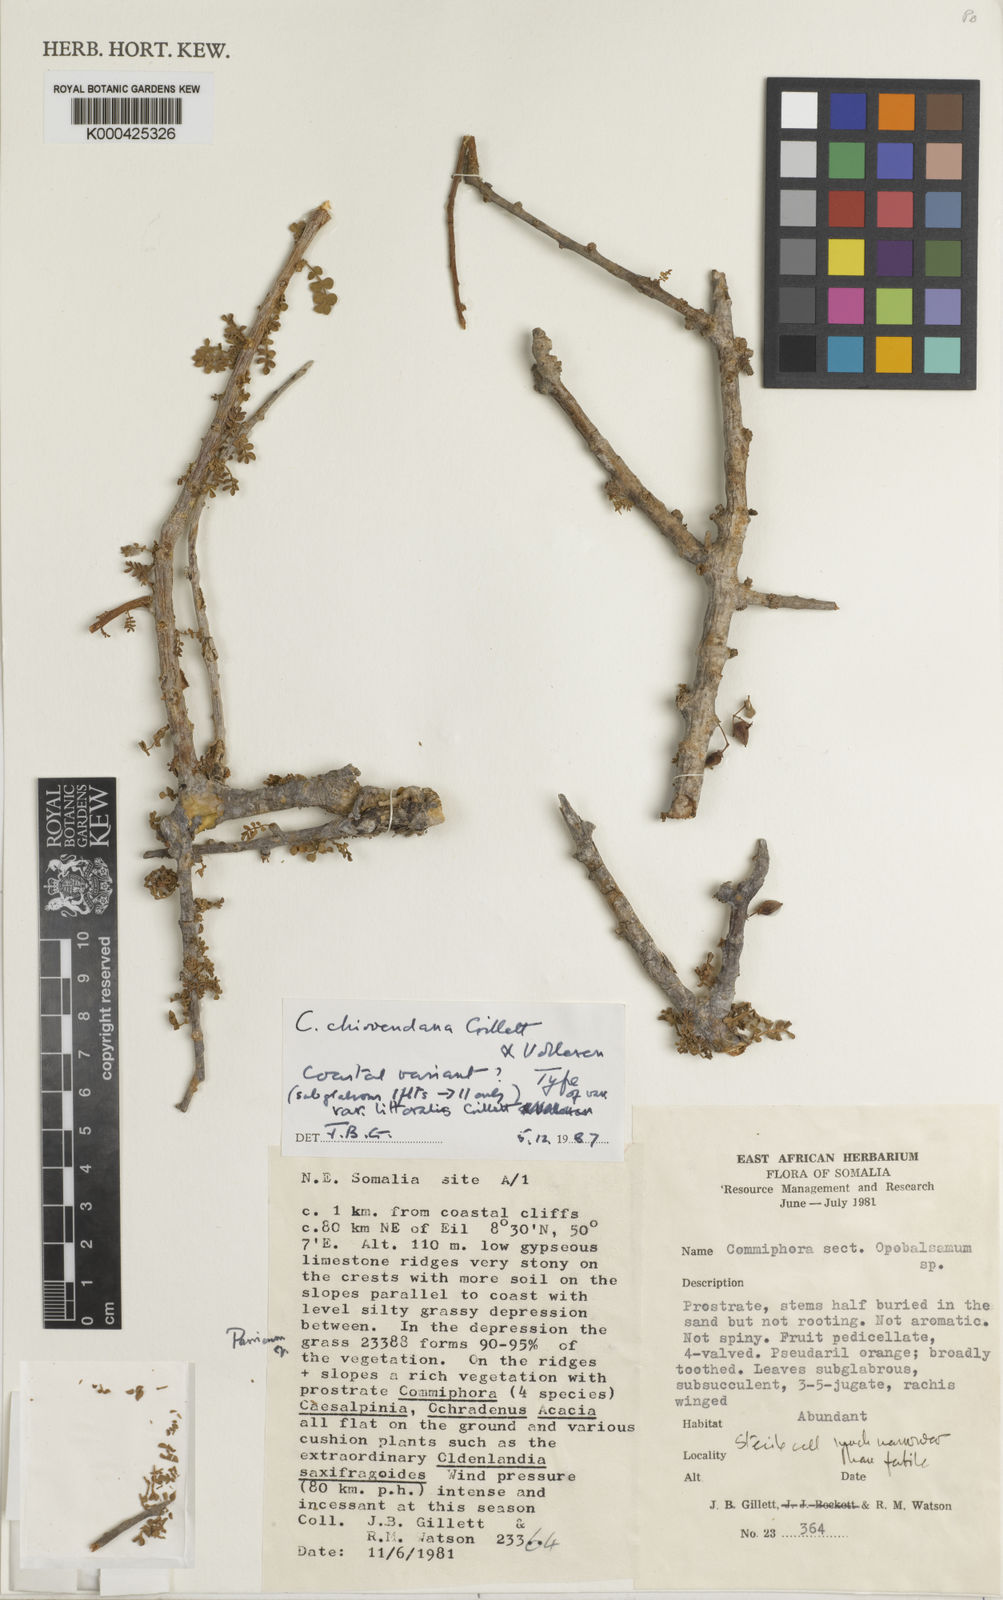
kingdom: Plantae
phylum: Tracheophyta
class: Magnoliopsida
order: Sapindales
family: Burseraceae
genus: Commiphora
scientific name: Commiphora chiovendana
